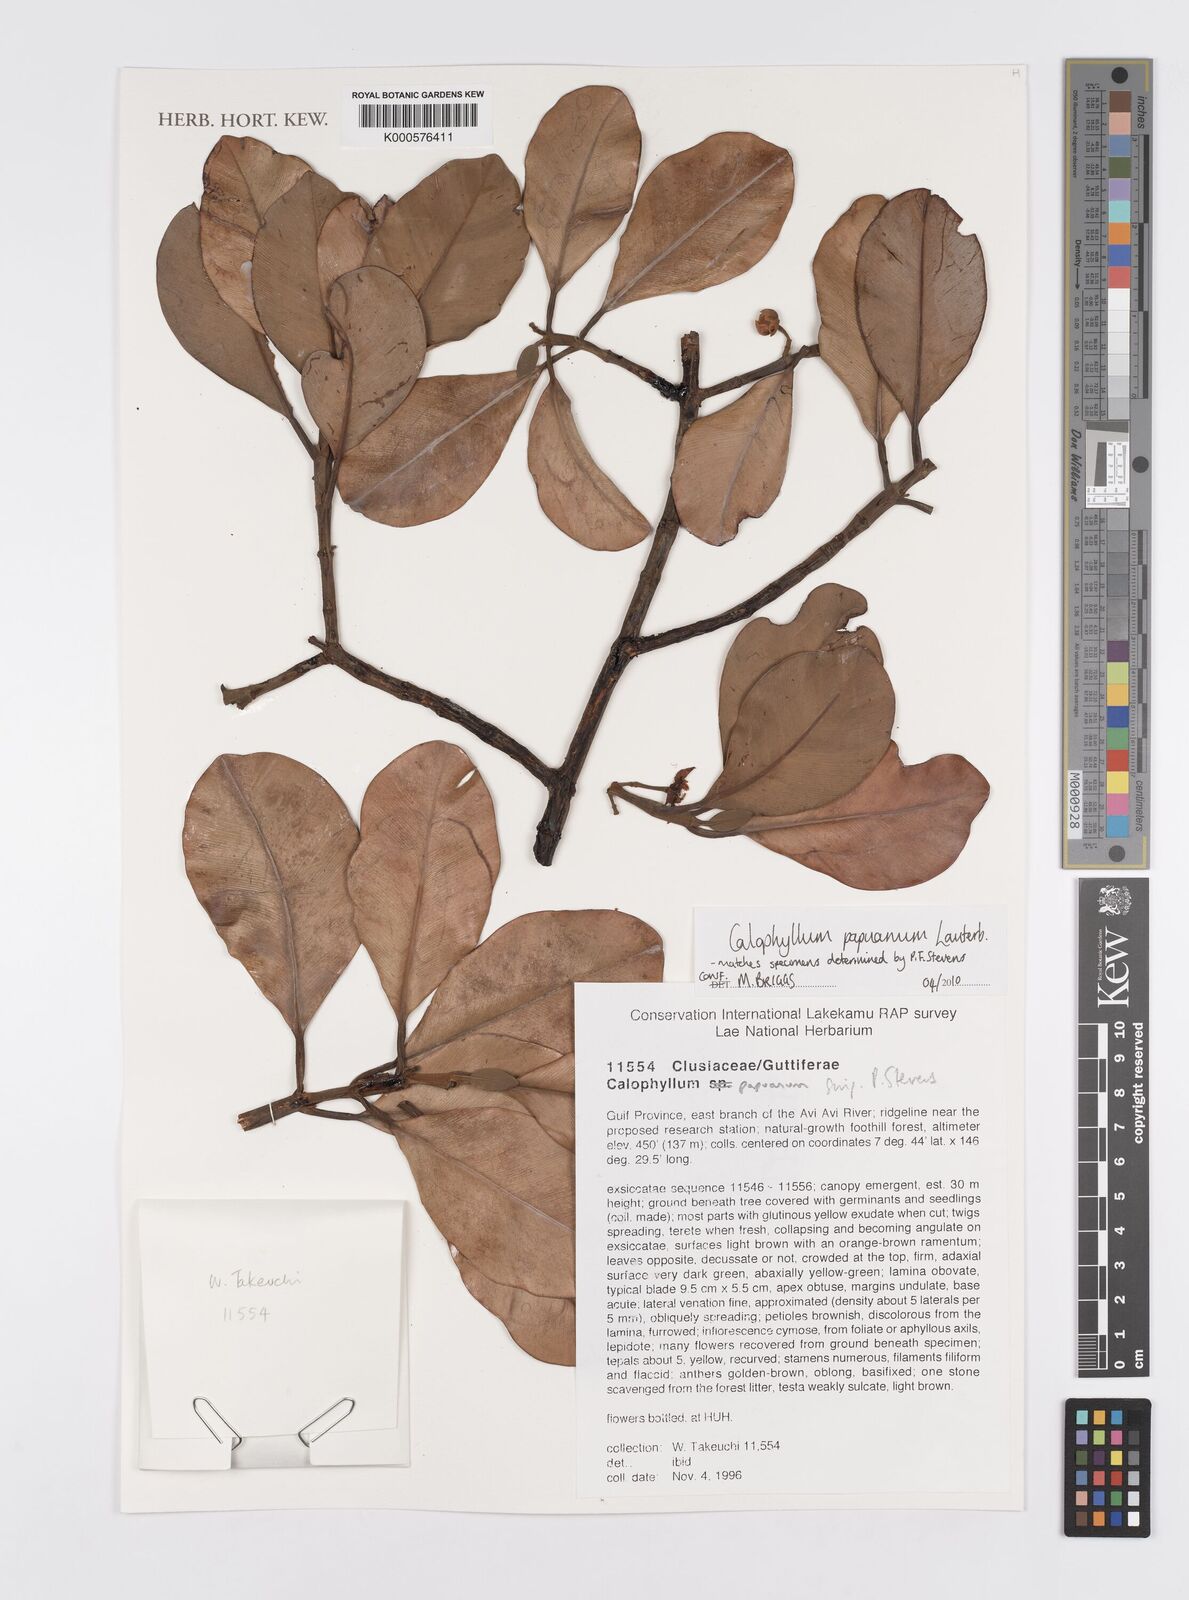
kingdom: Plantae
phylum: Tracheophyta
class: Magnoliopsida
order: Malpighiales
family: Calophyllaceae
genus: Calophyllum
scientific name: Calophyllum papuanum
